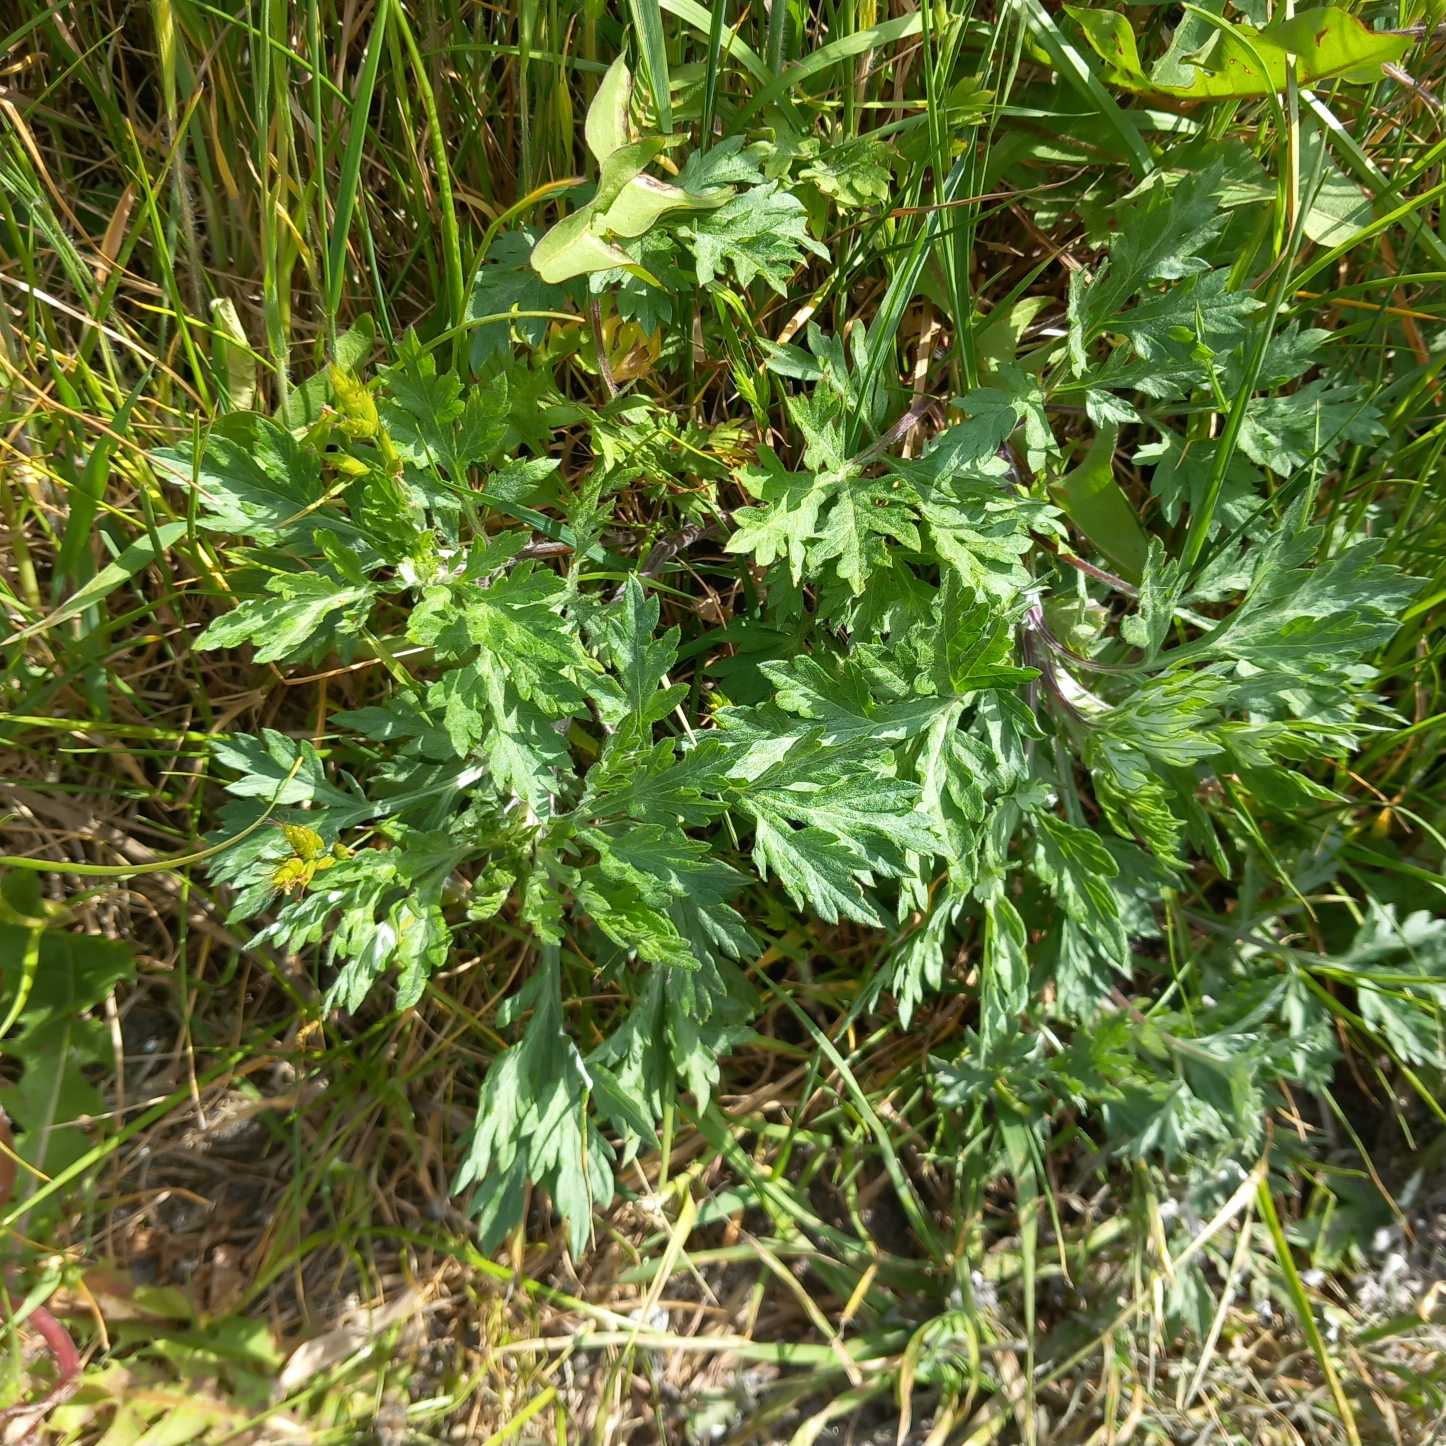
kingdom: Plantae
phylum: Tracheophyta
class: Magnoliopsida
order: Asterales
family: Asteraceae
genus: Artemisia
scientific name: Artemisia vulgaris
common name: Grå-bynke
